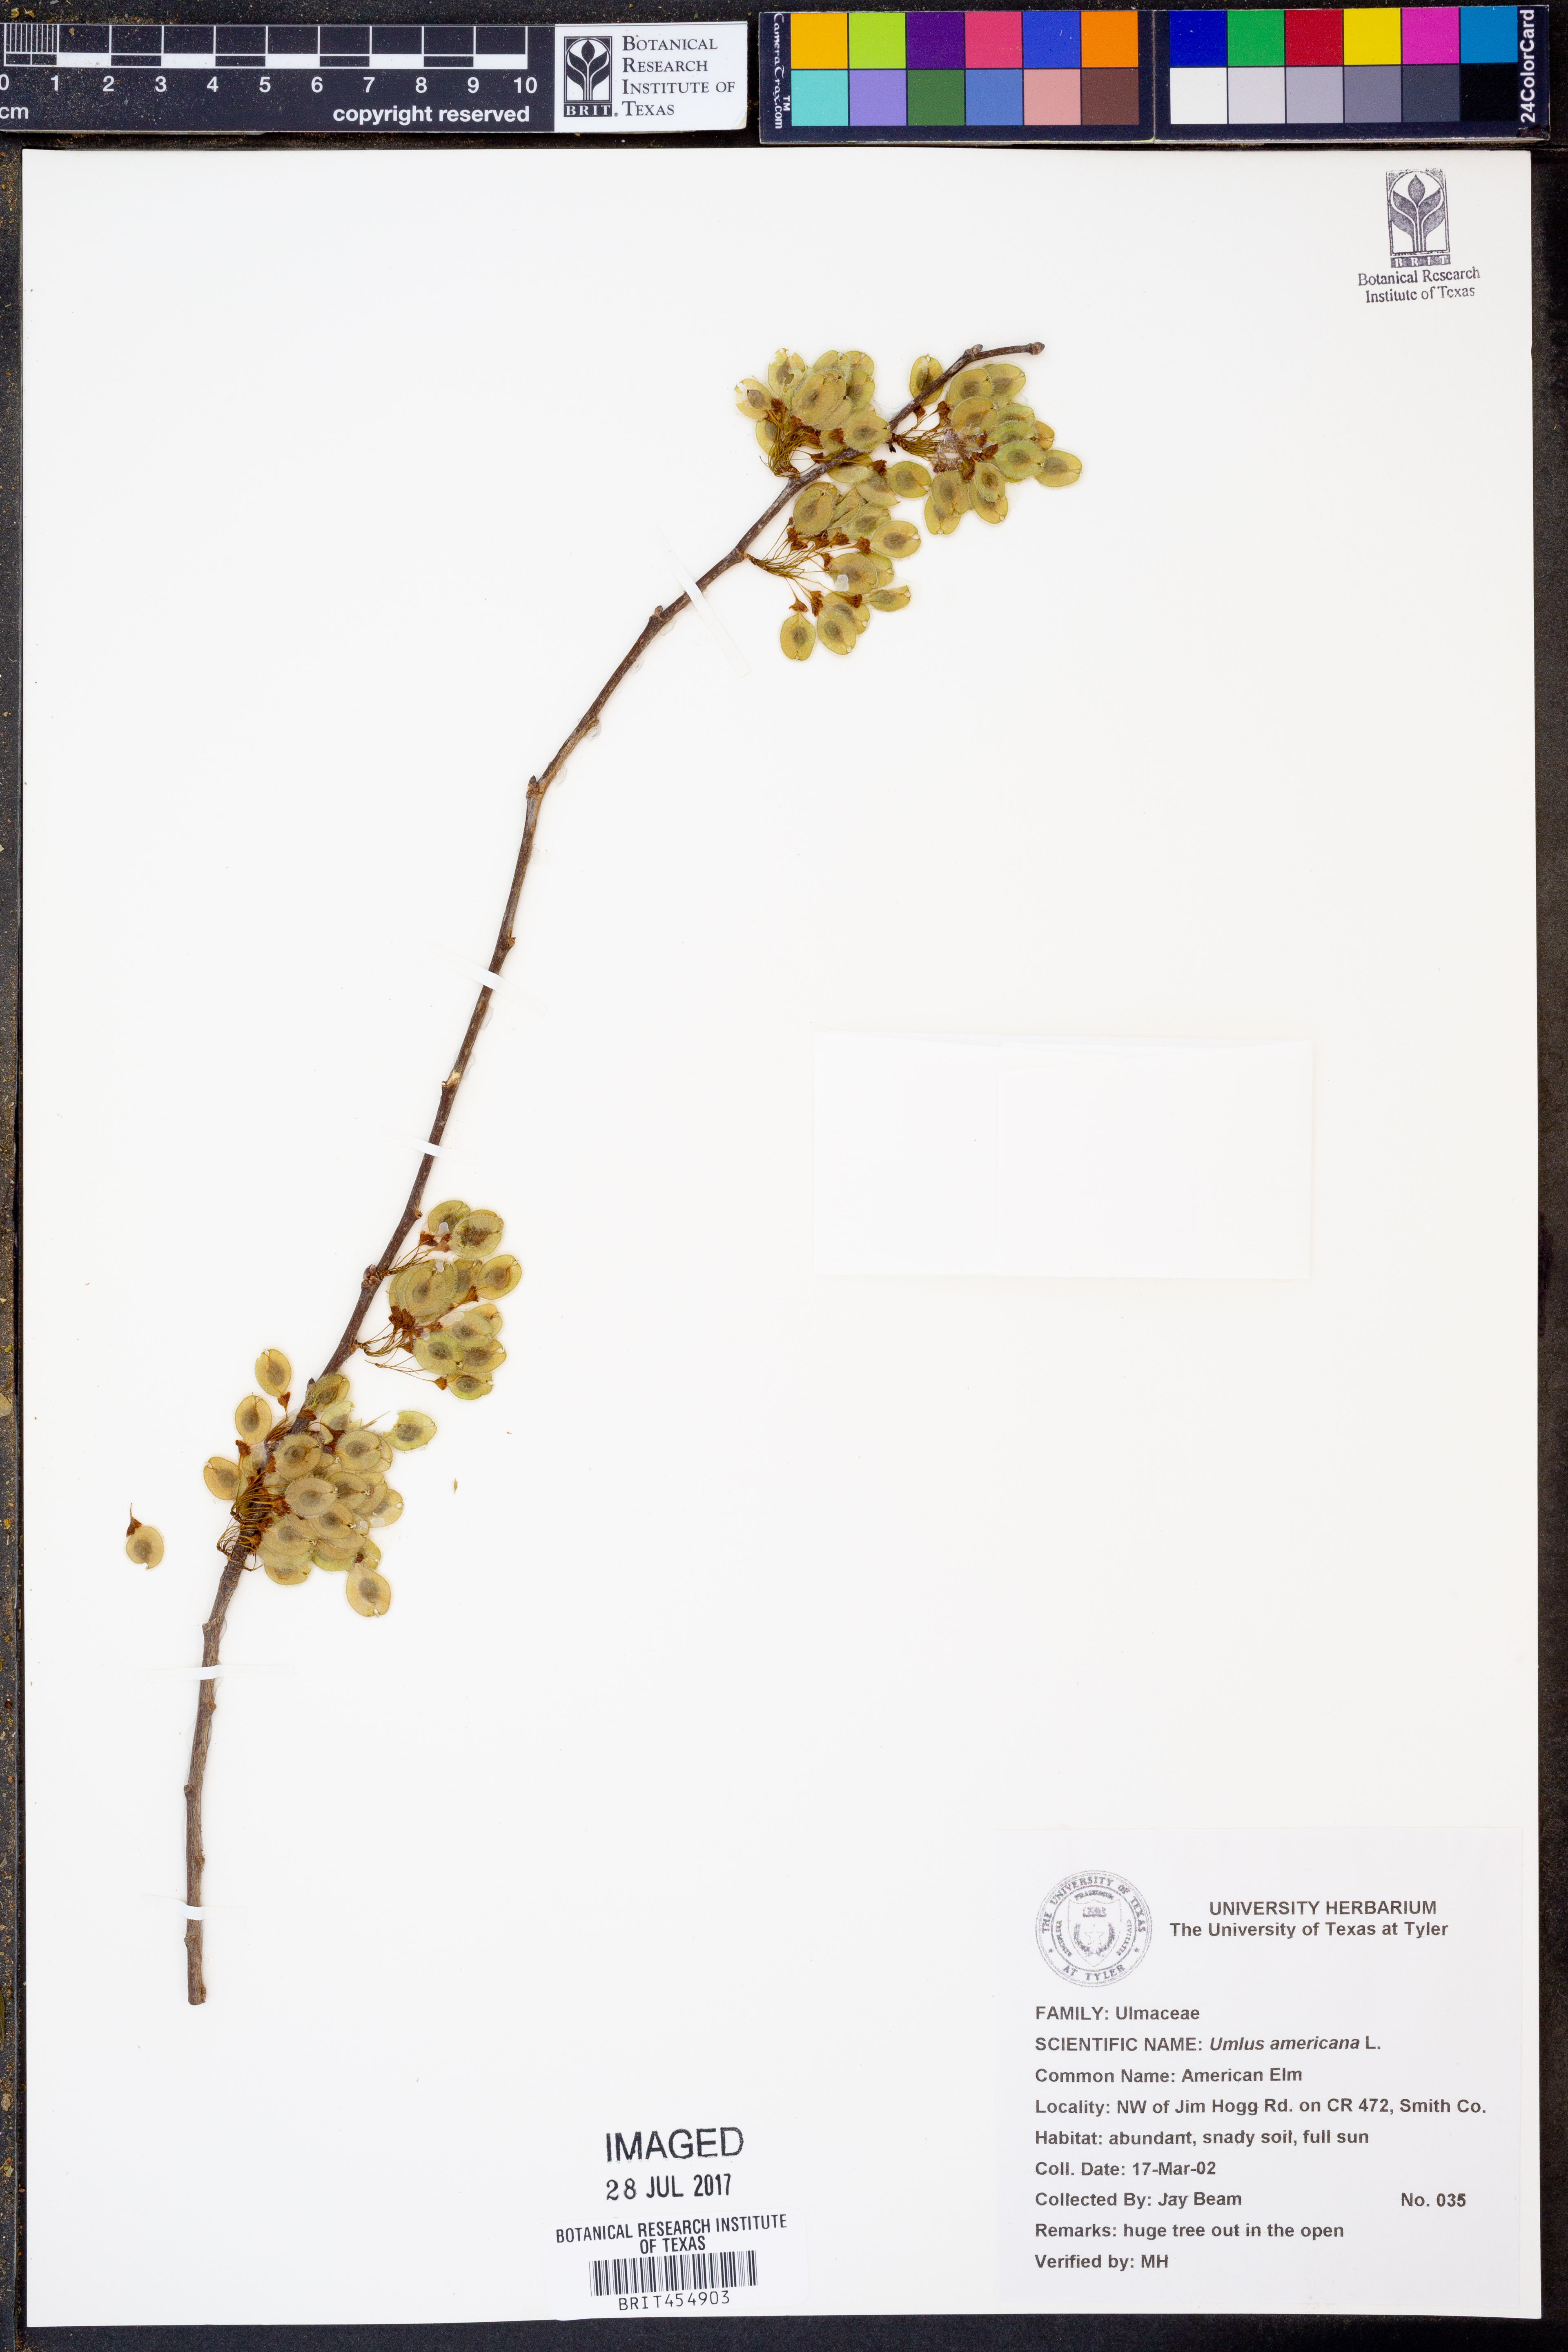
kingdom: Plantae
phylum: Tracheophyta
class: Magnoliopsida
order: Rosales
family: Ulmaceae
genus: Ulmus
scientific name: Ulmus americana
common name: American elm
